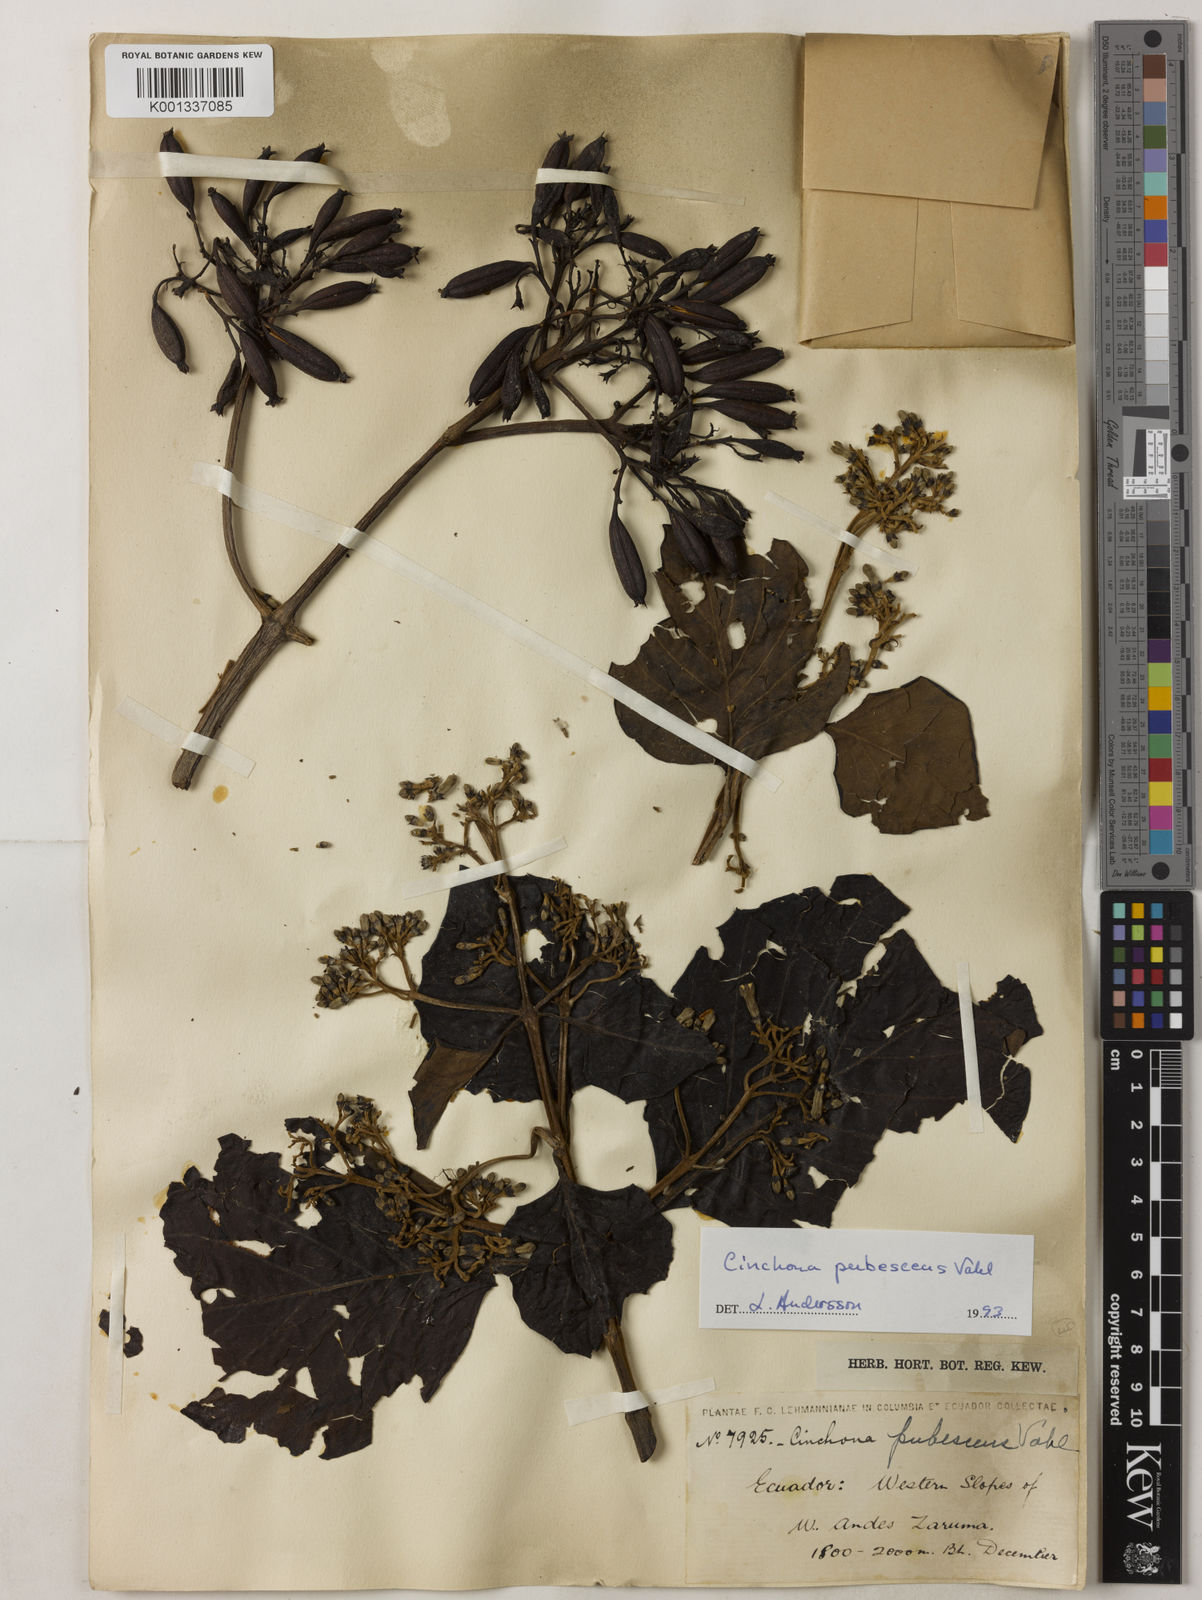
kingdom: Plantae
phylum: Tracheophyta
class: Magnoliopsida
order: Gentianales
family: Rubiaceae
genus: Cinchona
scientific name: Cinchona pubescens
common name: Quinine
